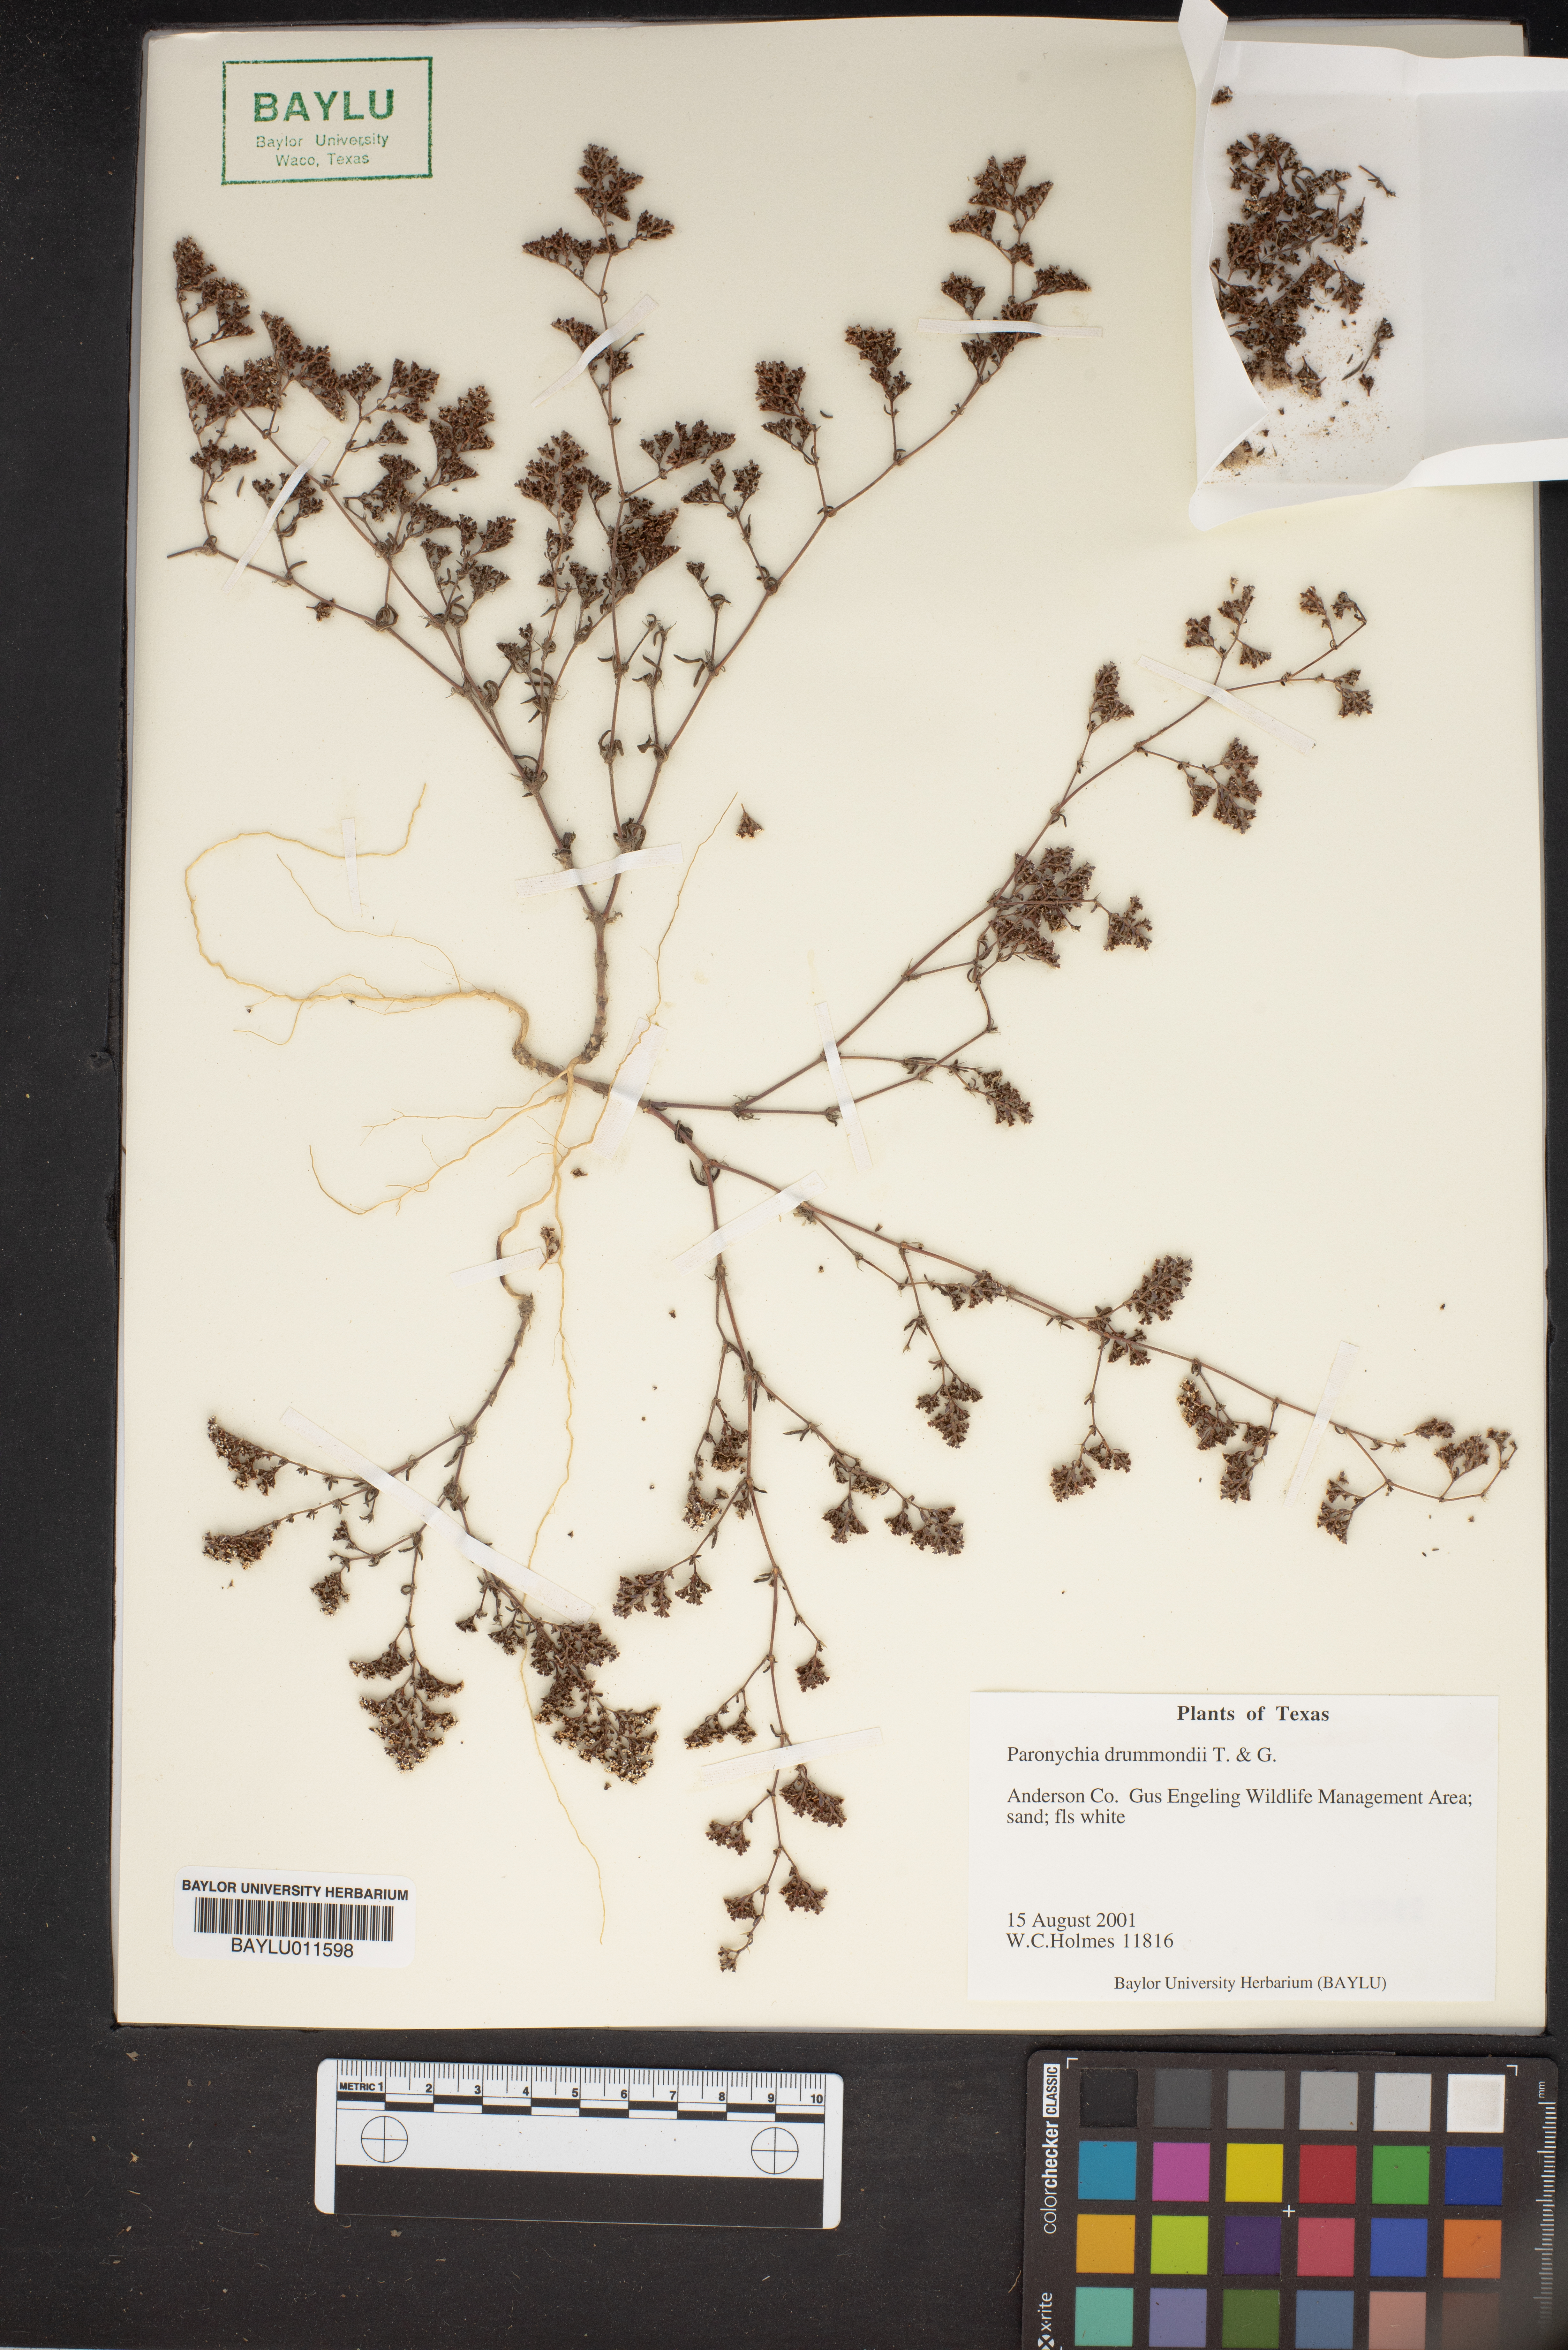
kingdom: Plantae
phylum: Tracheophyta
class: Magnoliopsida
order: Caryophyllales
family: Caryophyllaceae
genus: Paronychia
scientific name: Paronychia drummondii
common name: Drummond's nailwort
